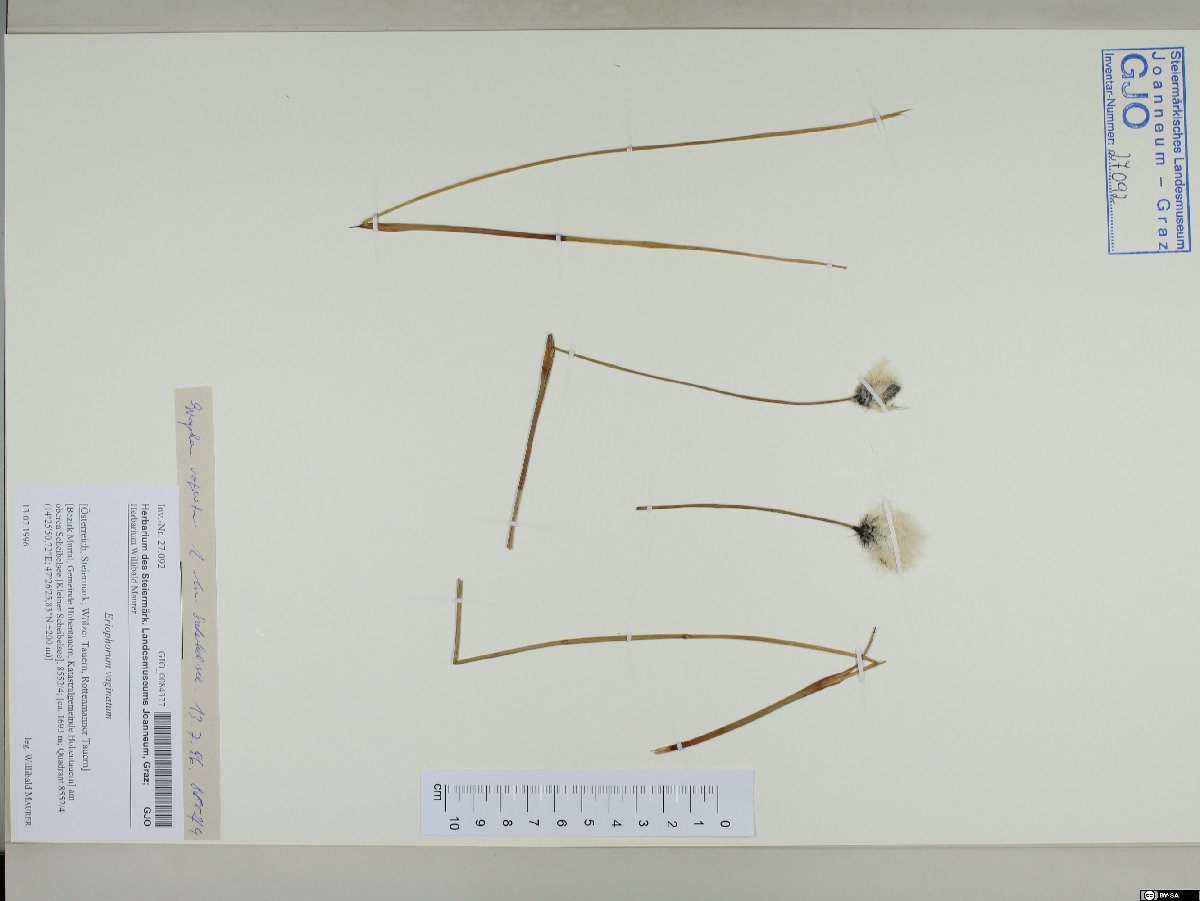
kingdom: Plantae
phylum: Tracheophyta
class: Liliopsida
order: Poales
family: Cyperaceae
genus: Eriophorum
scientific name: Eriophorum vaginatum
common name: Hare's-tail cottongrass
